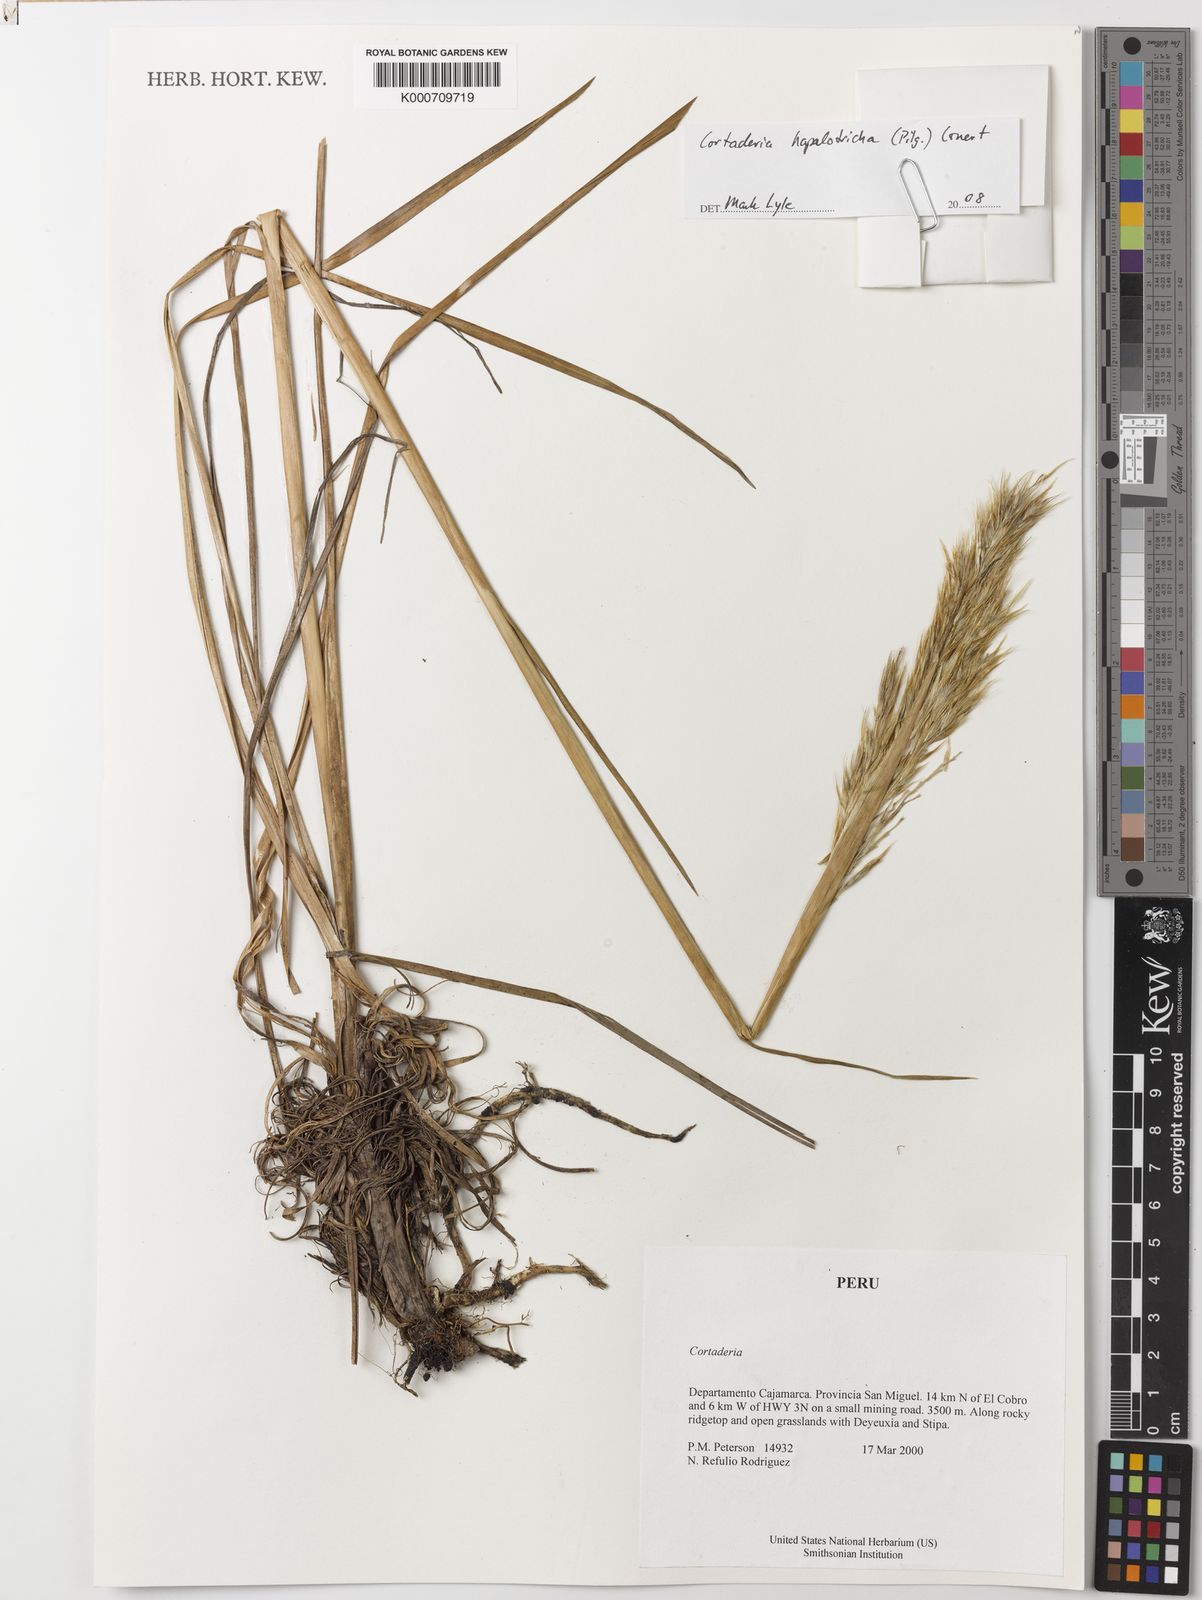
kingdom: Plantae
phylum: Tracheophyta
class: Liliopsida
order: Poales
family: Poaceae
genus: Cortaderia
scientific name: Cortaderia hapalotricha
